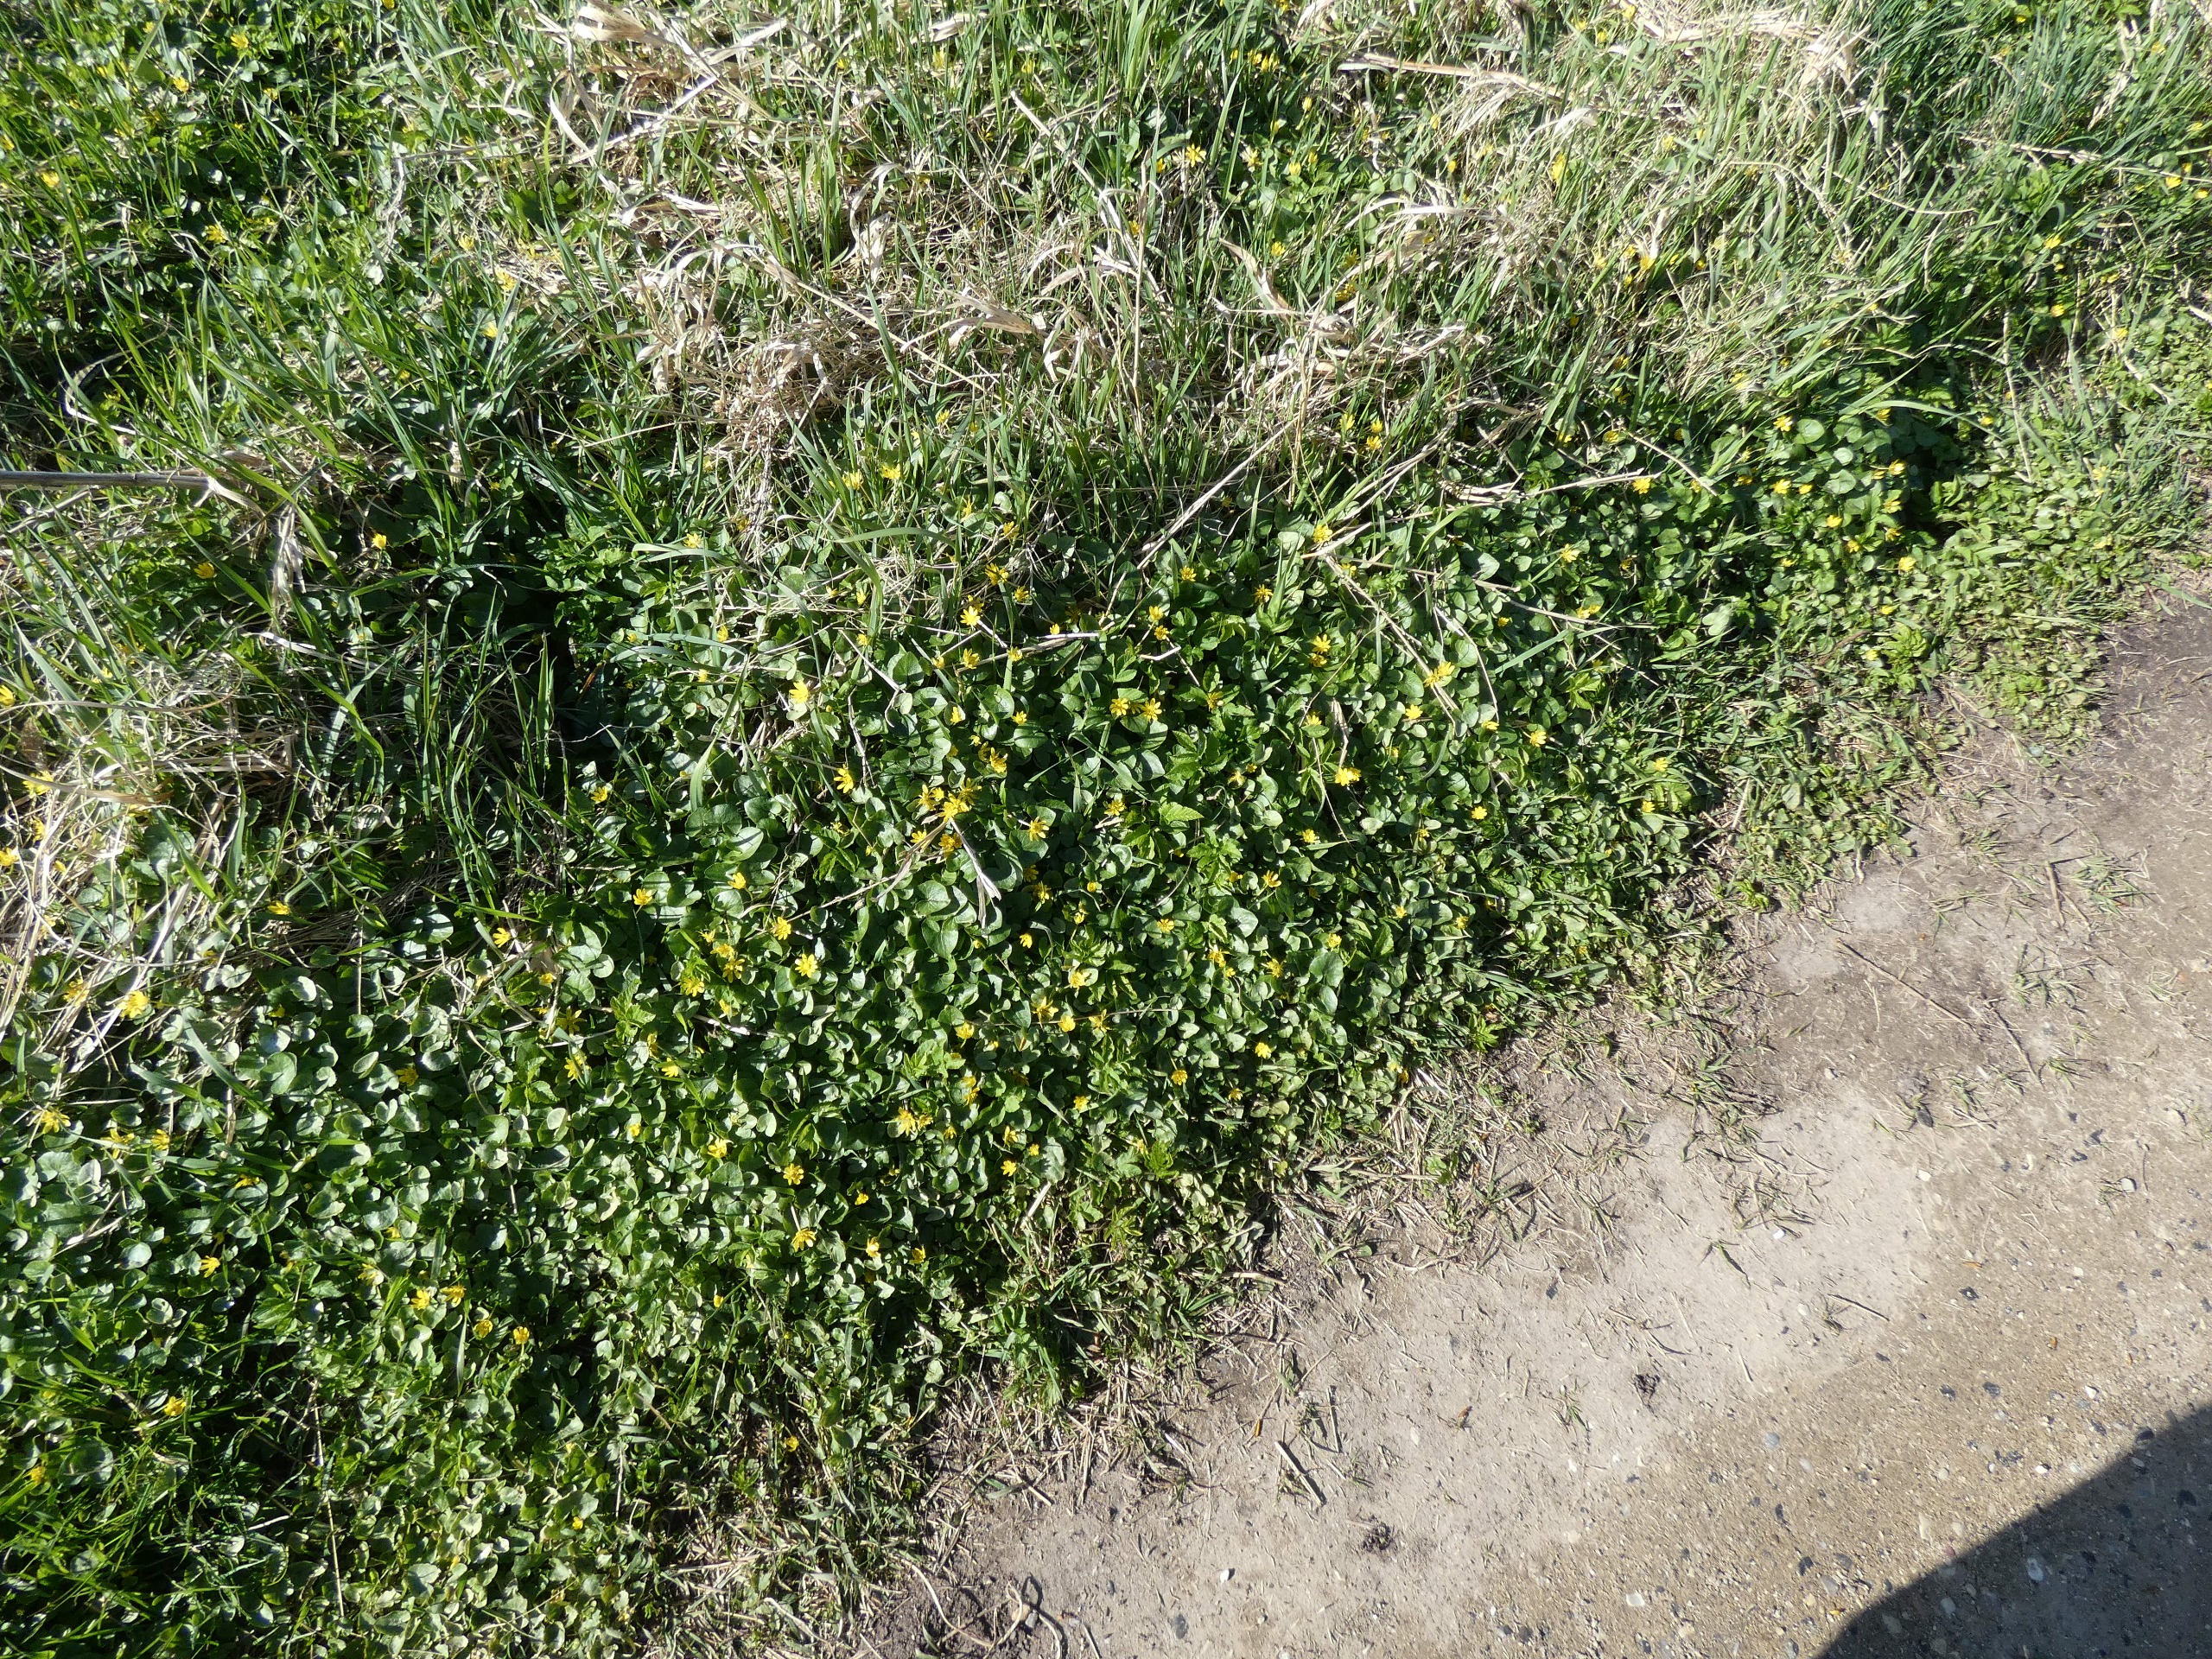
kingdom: Plantae
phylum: Tracheophyta
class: Magnoliopsida
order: Ranunculales
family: Ranunculaceae
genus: Ficaria
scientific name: Ficaria verna
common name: Vorterod
